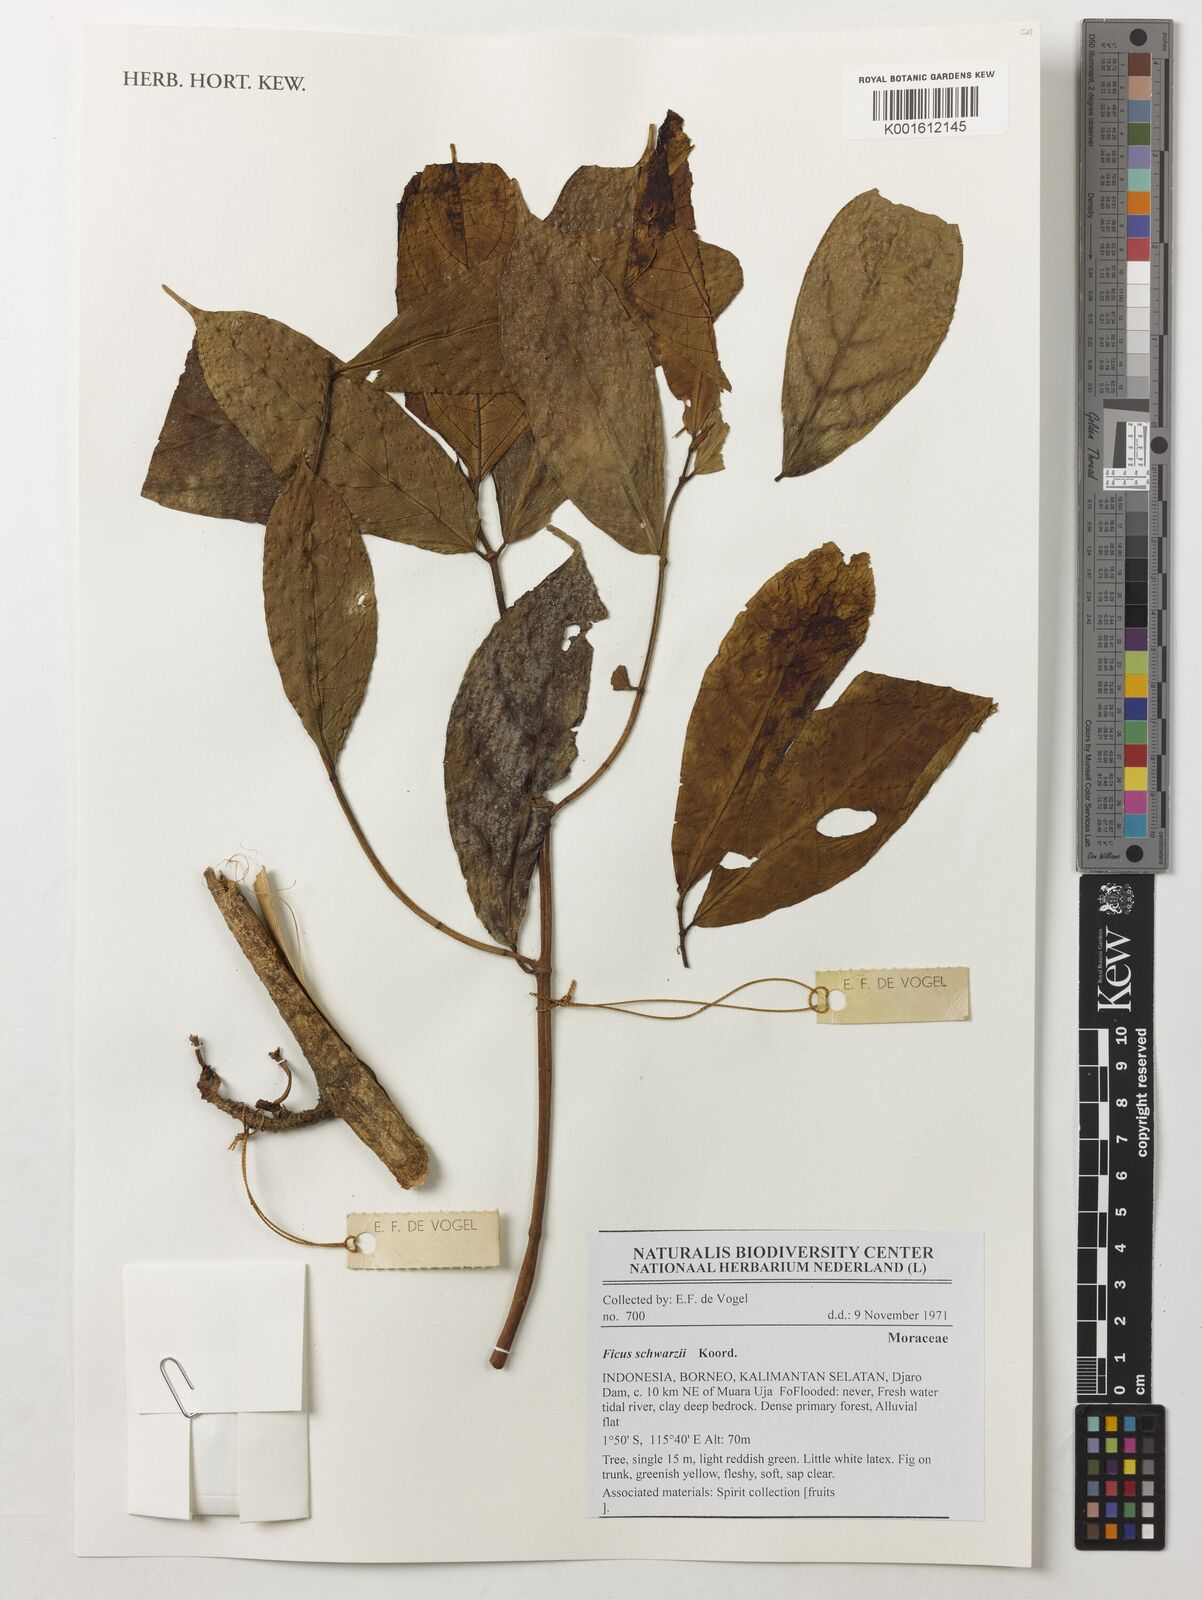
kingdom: Plantae
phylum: Tracheophyta
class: Magnoliopsida
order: Rosales
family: Moraceae
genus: Ficus
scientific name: Ficus schwarzii
